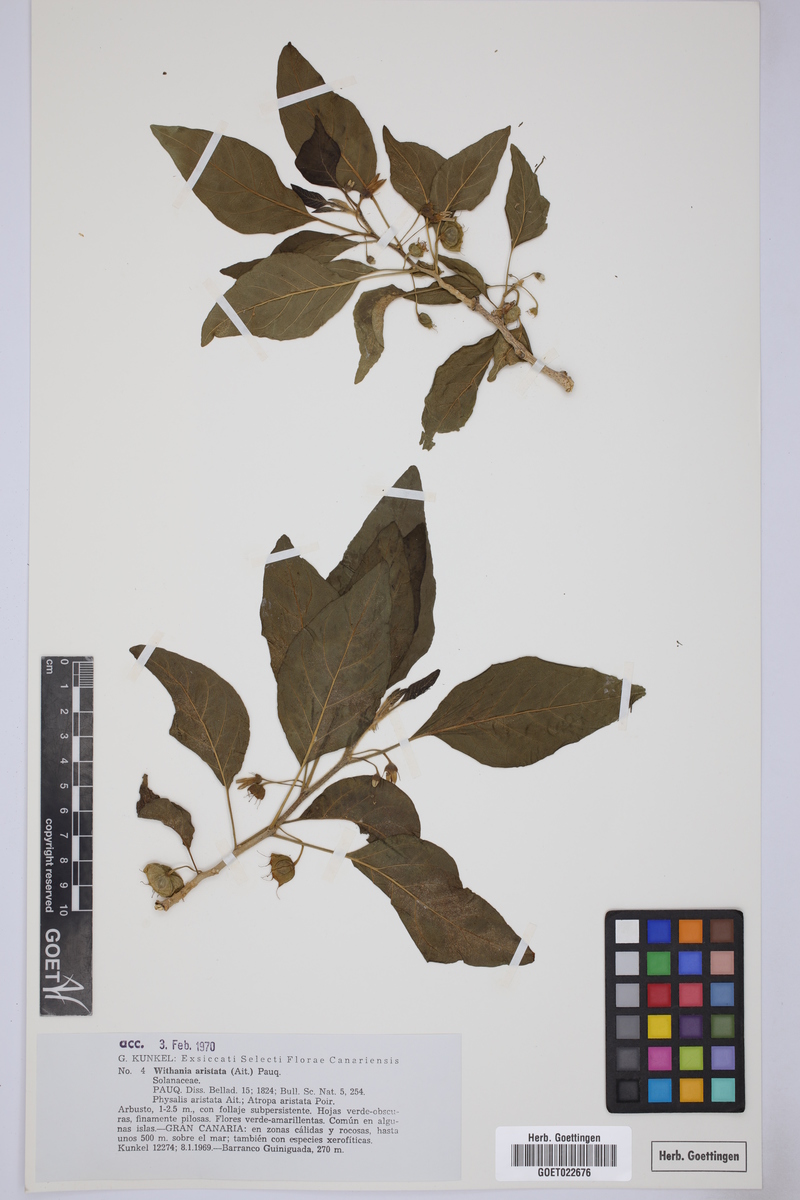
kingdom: Plantae
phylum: Tracheophyta
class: Magnoliopsida
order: Solanales
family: Solanaceae
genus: Withania
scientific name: Withania aristata
